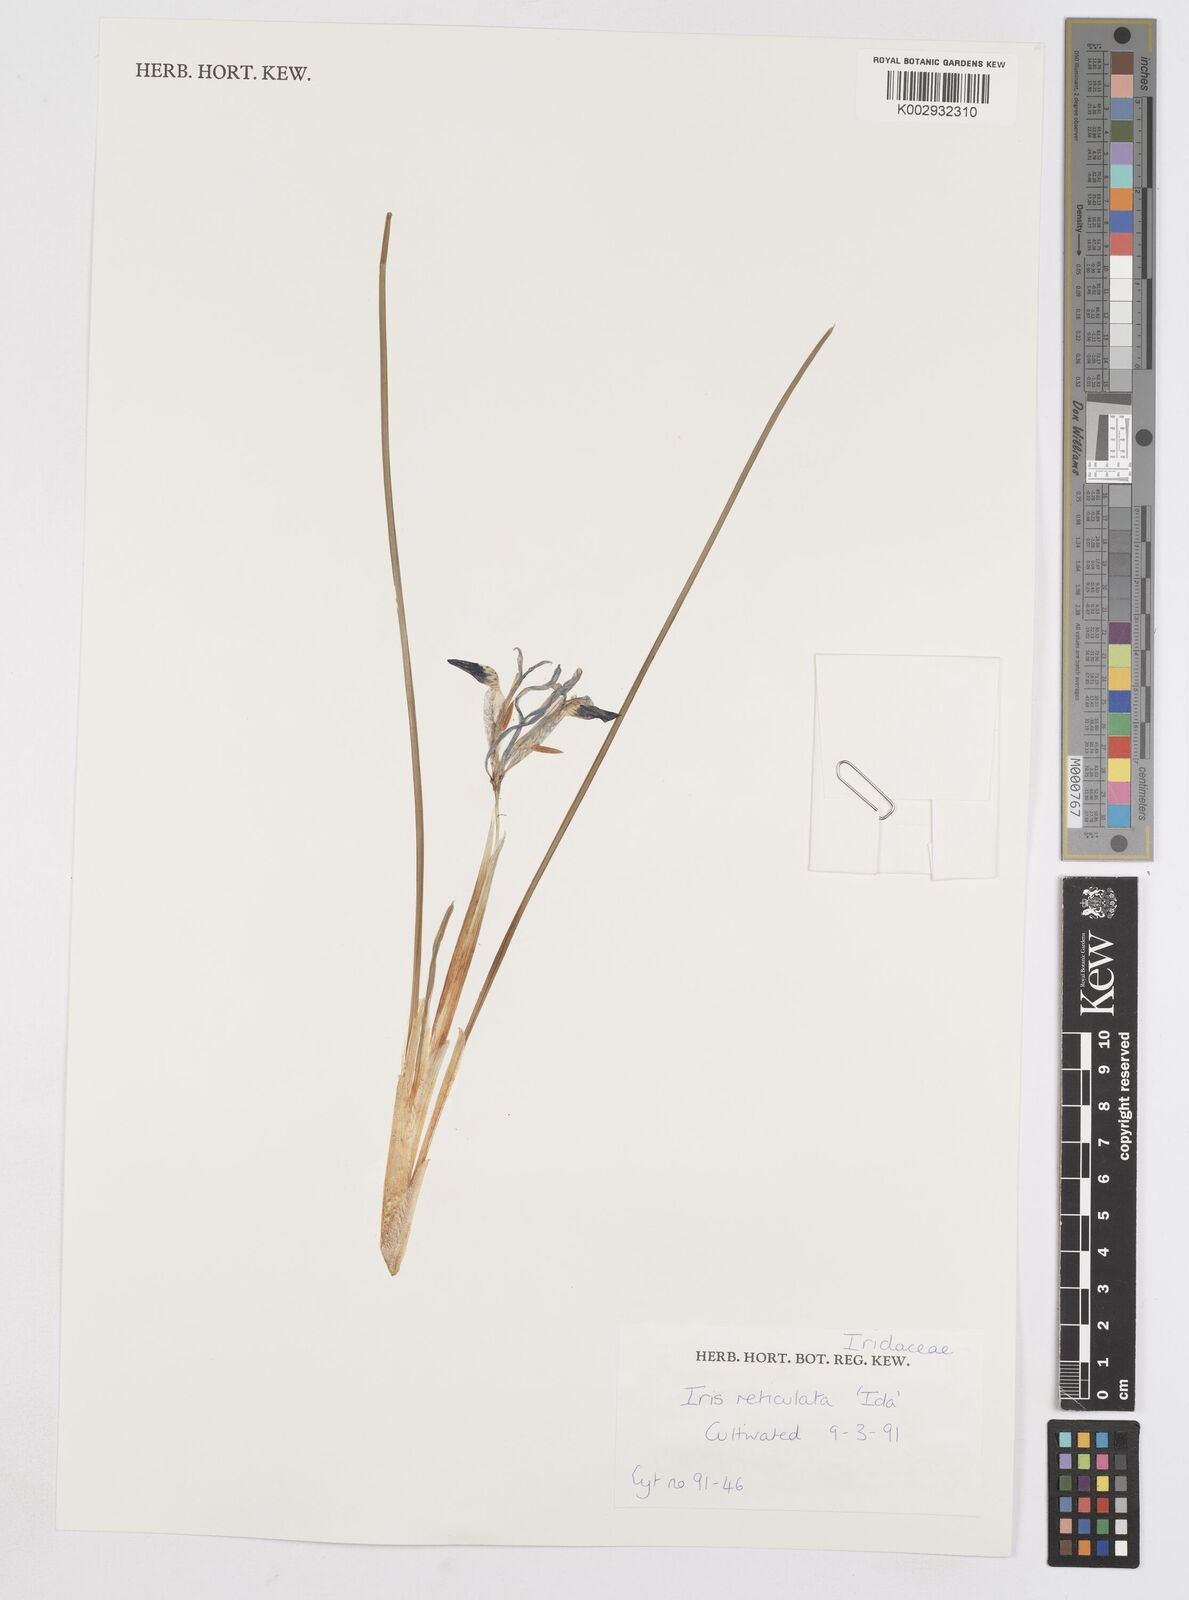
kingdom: Plantae
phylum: Tracheophyta
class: Liliopsida
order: Asparagales
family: Iridaceae
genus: Iris
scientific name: Iris reticulata
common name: Netted iris
